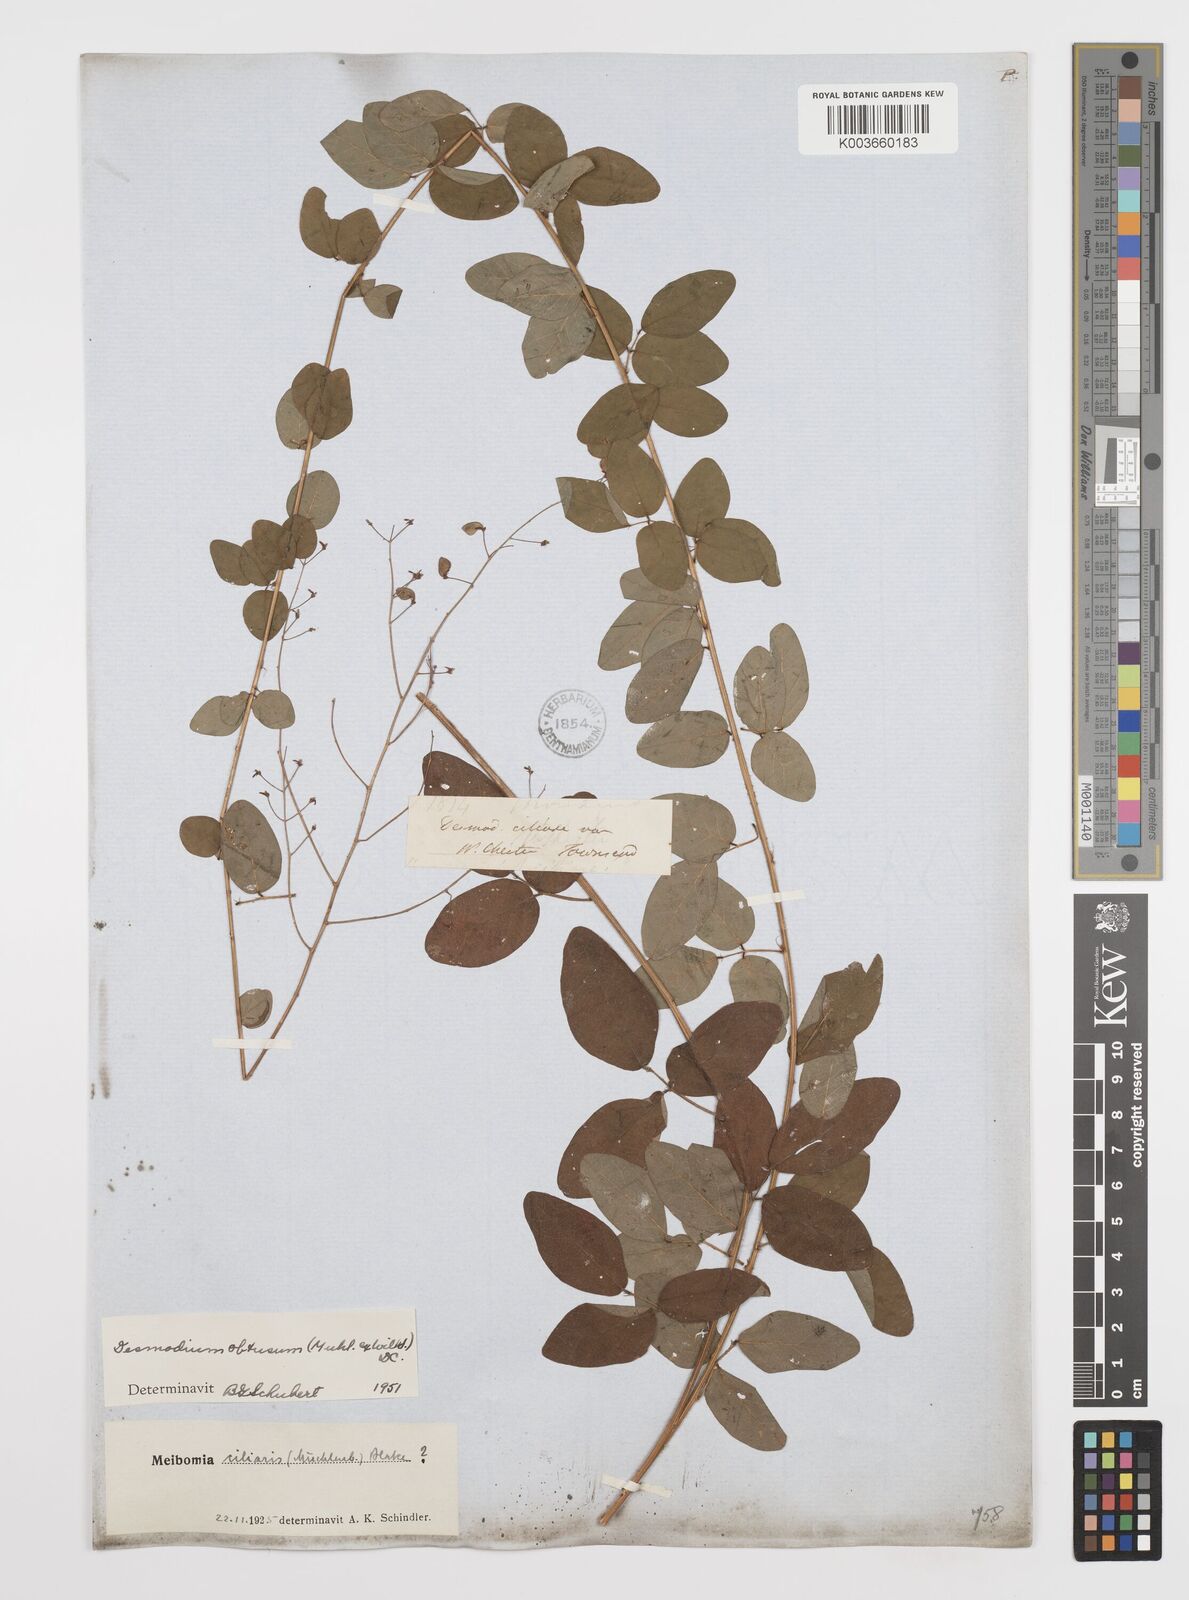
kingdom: Plantae
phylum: Tracheophyta
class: Magnoliopsida
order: Fabales
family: Fabaceae
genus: Desmodium
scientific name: Desmodium obtusum
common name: Stiff tick trefoil
